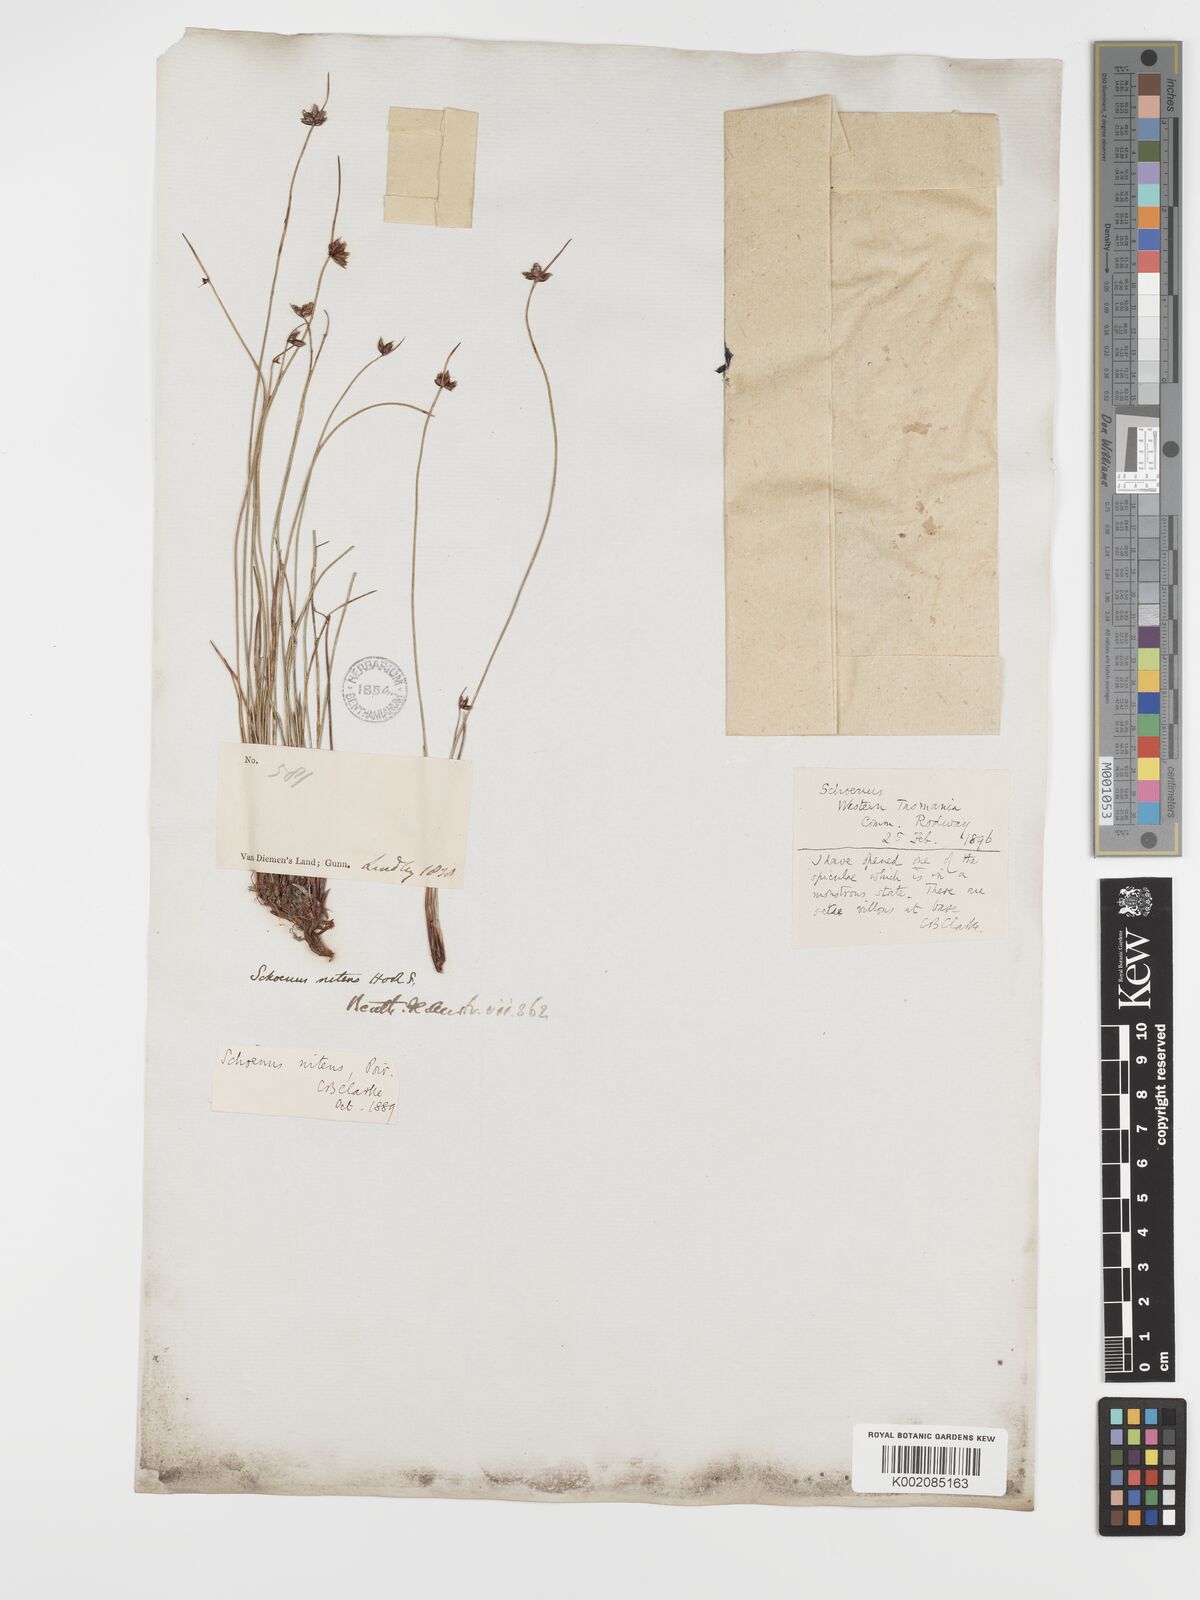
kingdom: Plantae
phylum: Tracheophyta
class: Liliopsida
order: Poales
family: Cyperaceae
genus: Schoenus
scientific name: Schoenus nitens
